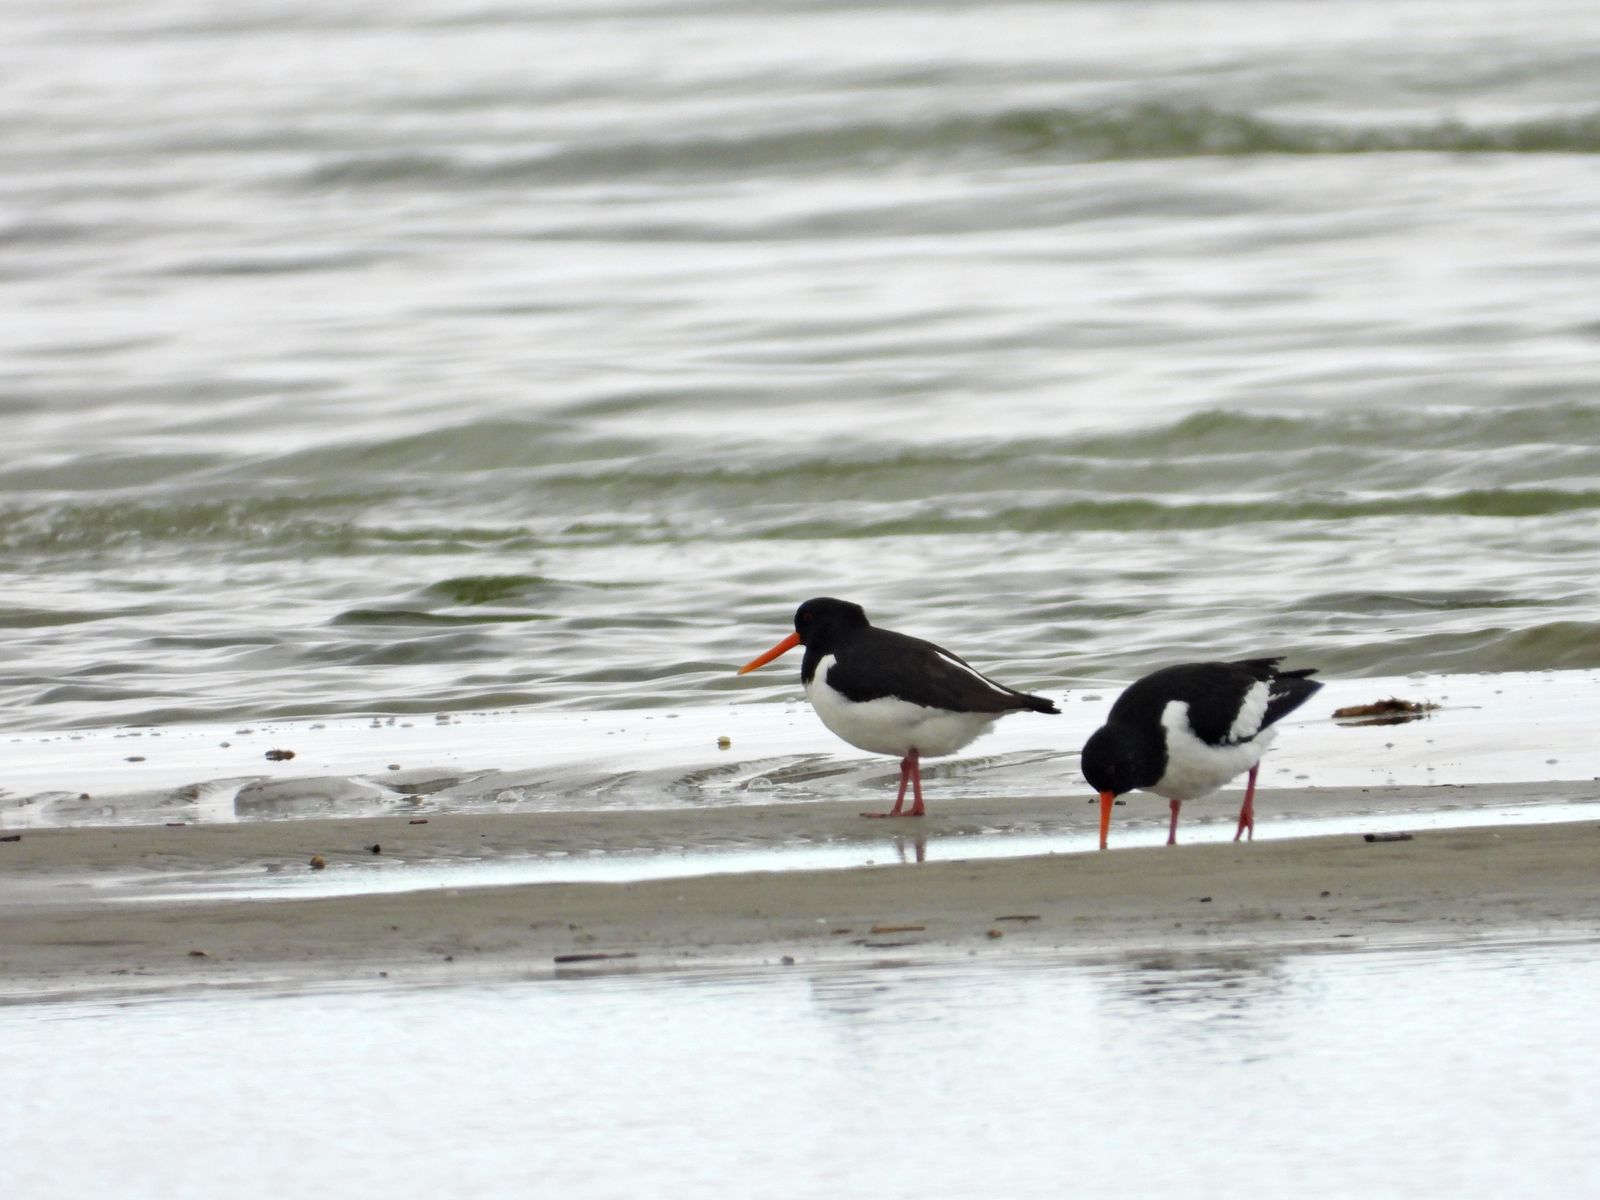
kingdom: Animalia
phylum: Chordata
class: Aves
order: Charadriiformes
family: Haematopodidae
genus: Haematopus
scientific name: Haematopus ostralegus
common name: Eurasian oystercatcher
